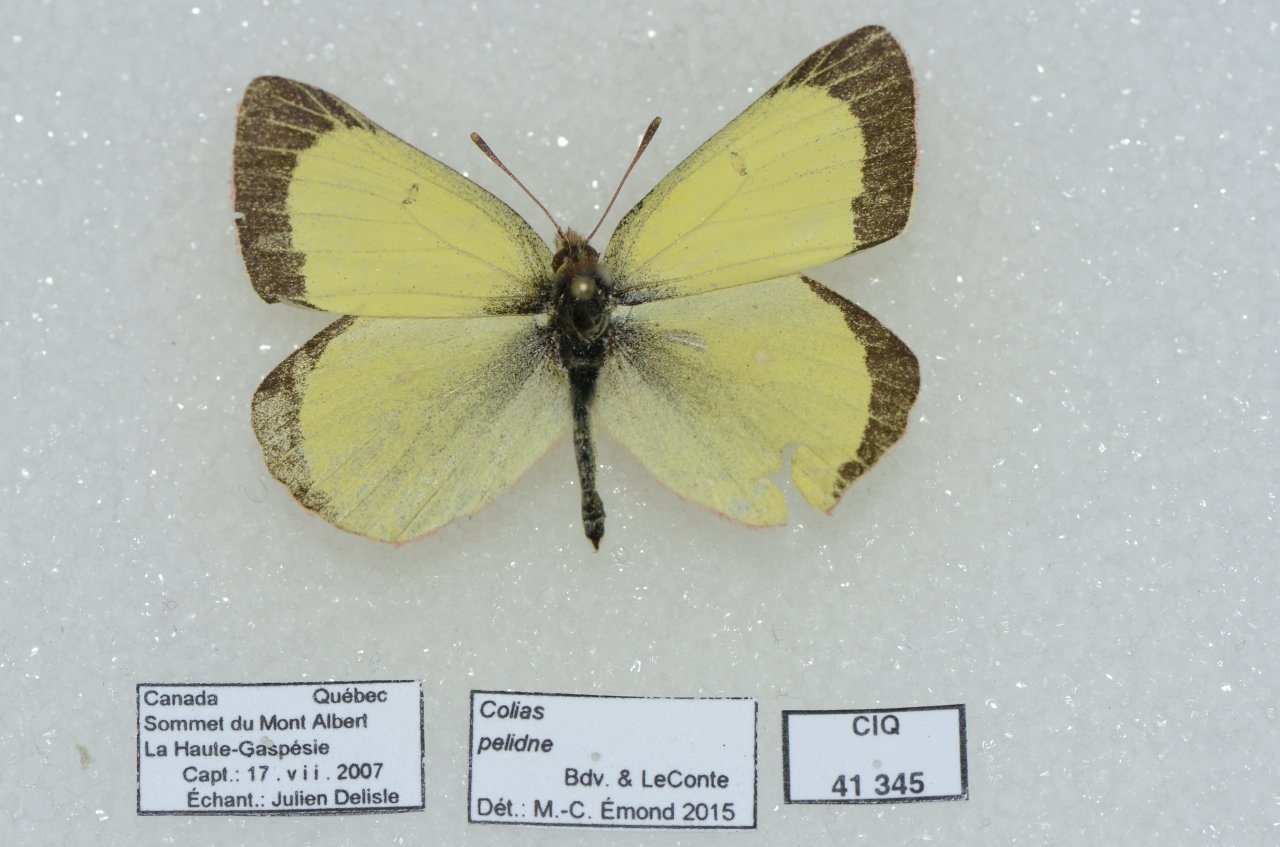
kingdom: Animalia
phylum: Arthropoda
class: Insecta
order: Lepidoptera
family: Pieridae
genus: Colias
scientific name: Colias pelidne
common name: Pelidne Sulphur
